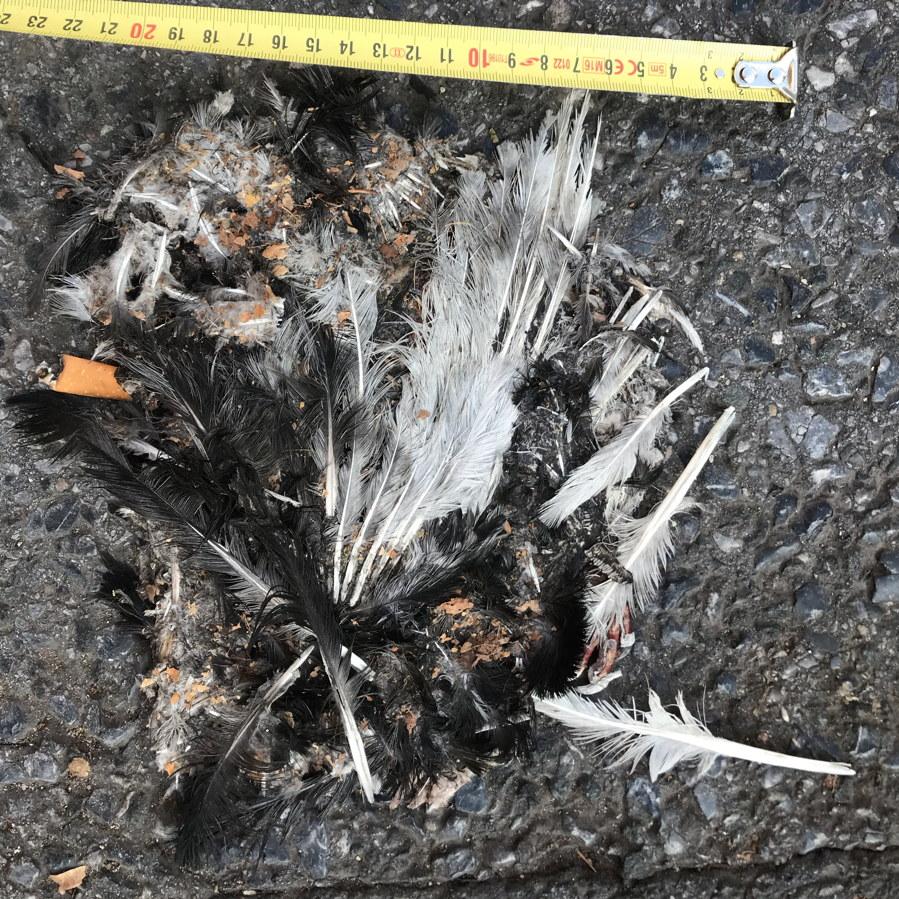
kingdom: Animalia
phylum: Chordata
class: Aves
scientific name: Aves
